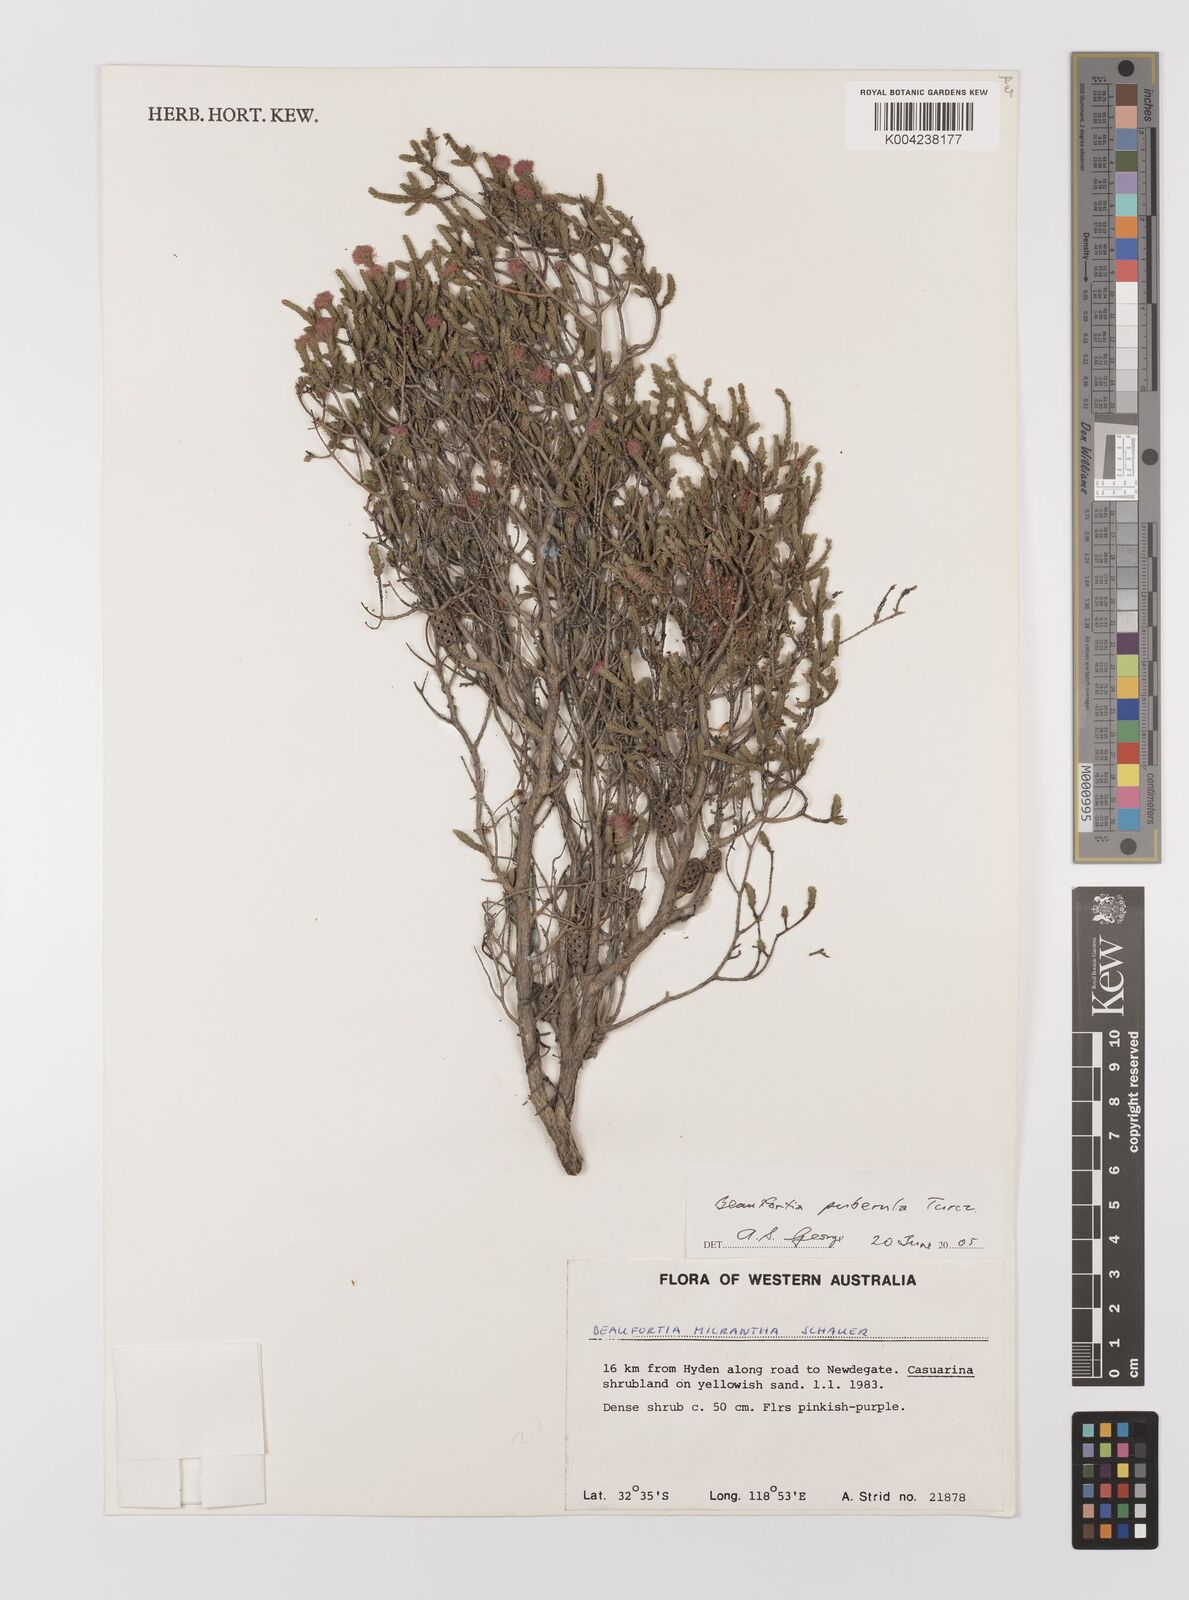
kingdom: Plantae
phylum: Tracheophyta
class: Magnoliopsida
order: Myrtales
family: Myrtaceae
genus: Melaleuca
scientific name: Melaleuca micrantha
